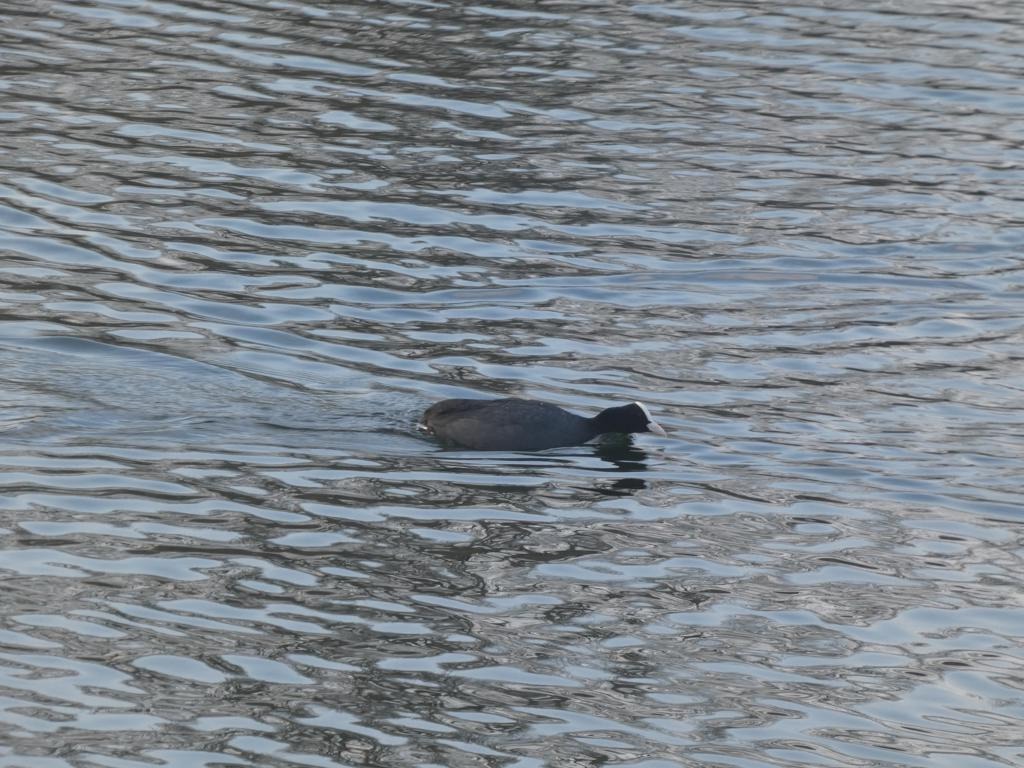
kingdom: Animalia
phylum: Chordata
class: Aves
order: Gruiformes
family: Rallidae
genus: Fulica
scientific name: Fulica atra
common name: Blishøne
